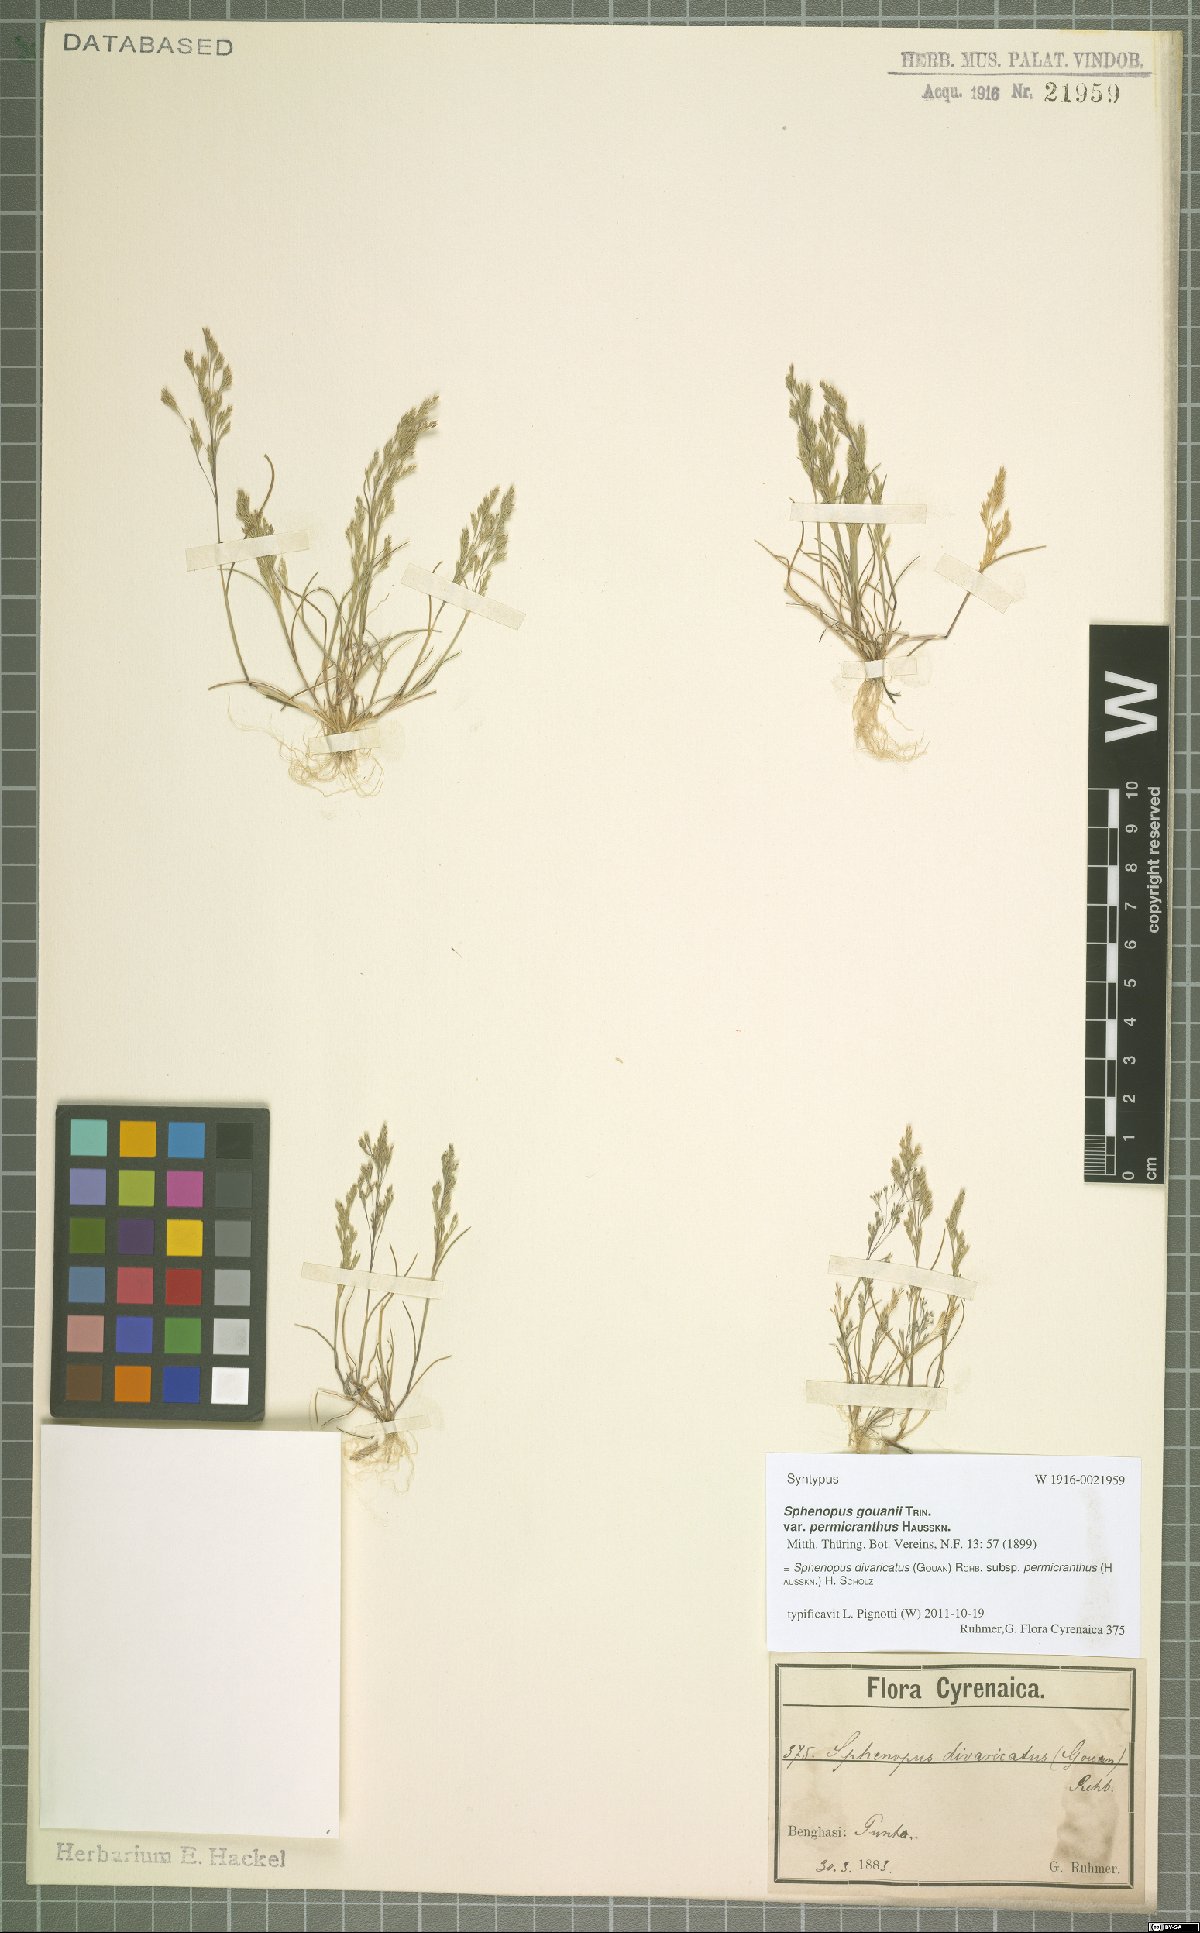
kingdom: Plantae
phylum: Tracheophyta
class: Liliopsida
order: Poales
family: Poaceae
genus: Sphenopus
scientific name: Sphenopus divaricatus
